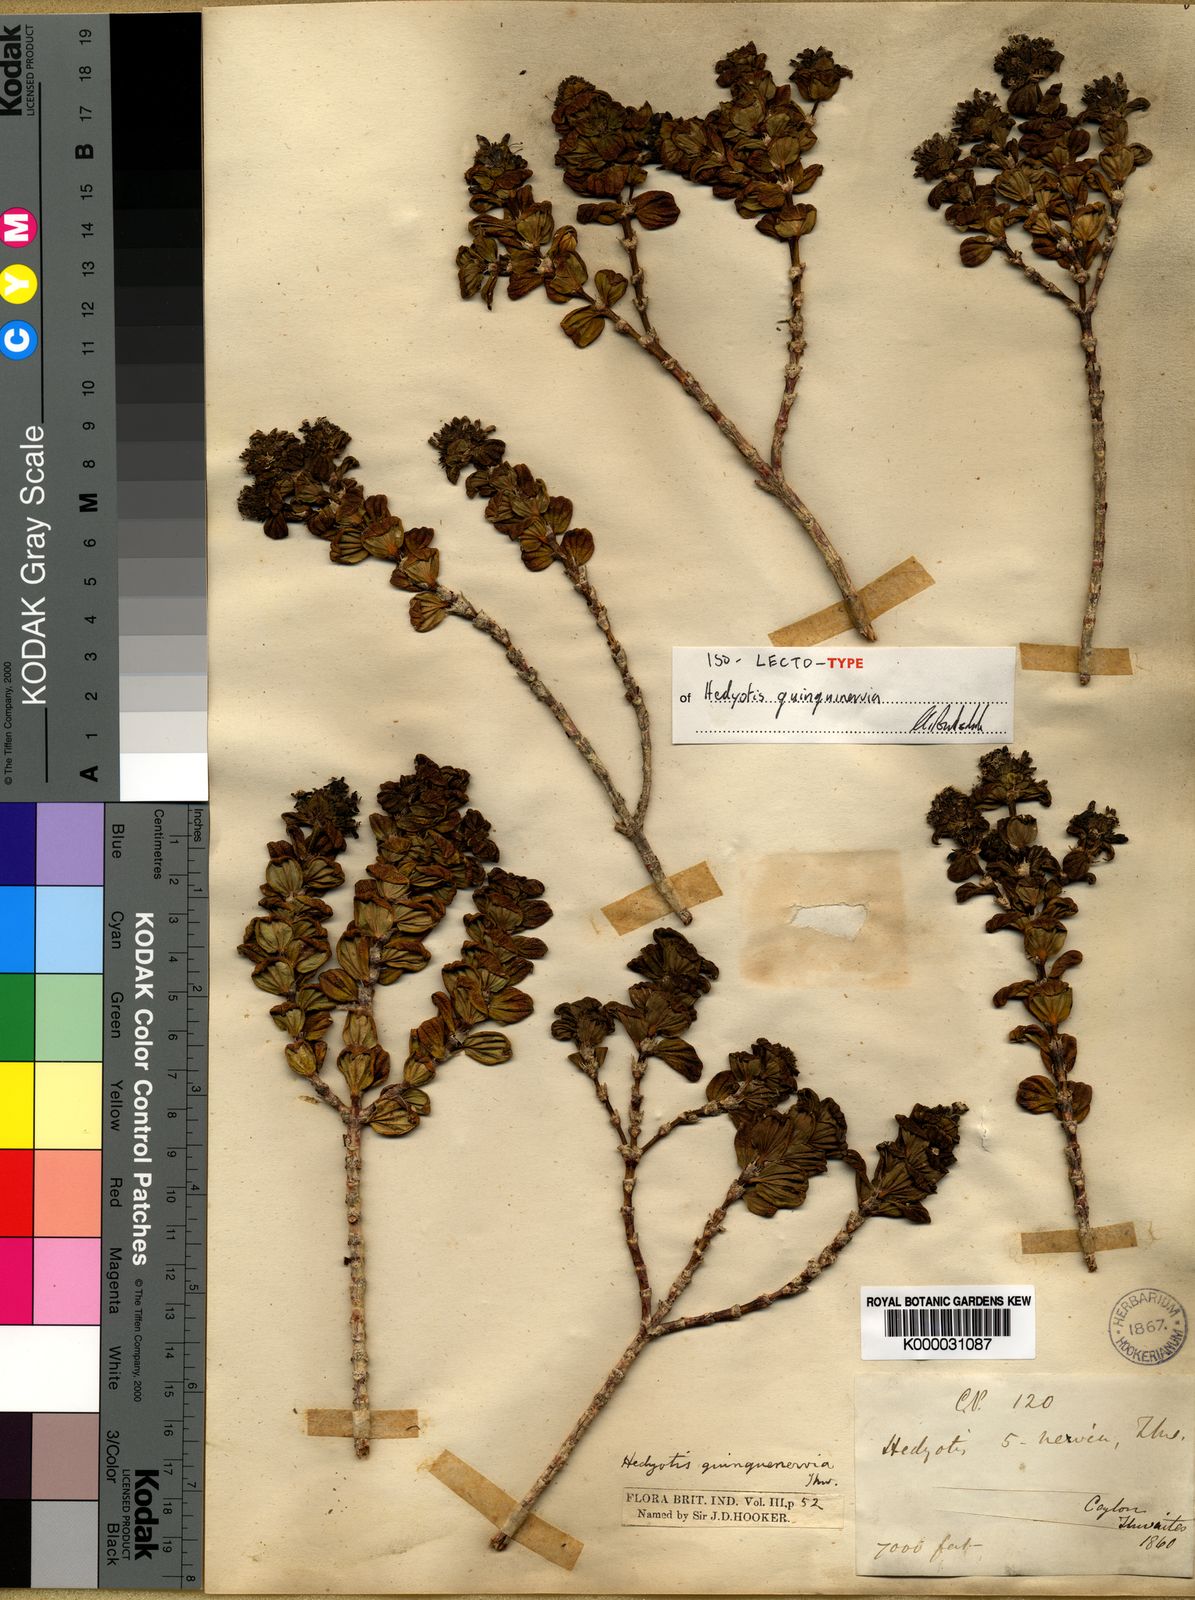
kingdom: Plantae
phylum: Tracheophyta
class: Magnoliopsida
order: Gentianales
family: Rubiaceae
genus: Hedyotis
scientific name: Hedyotis
